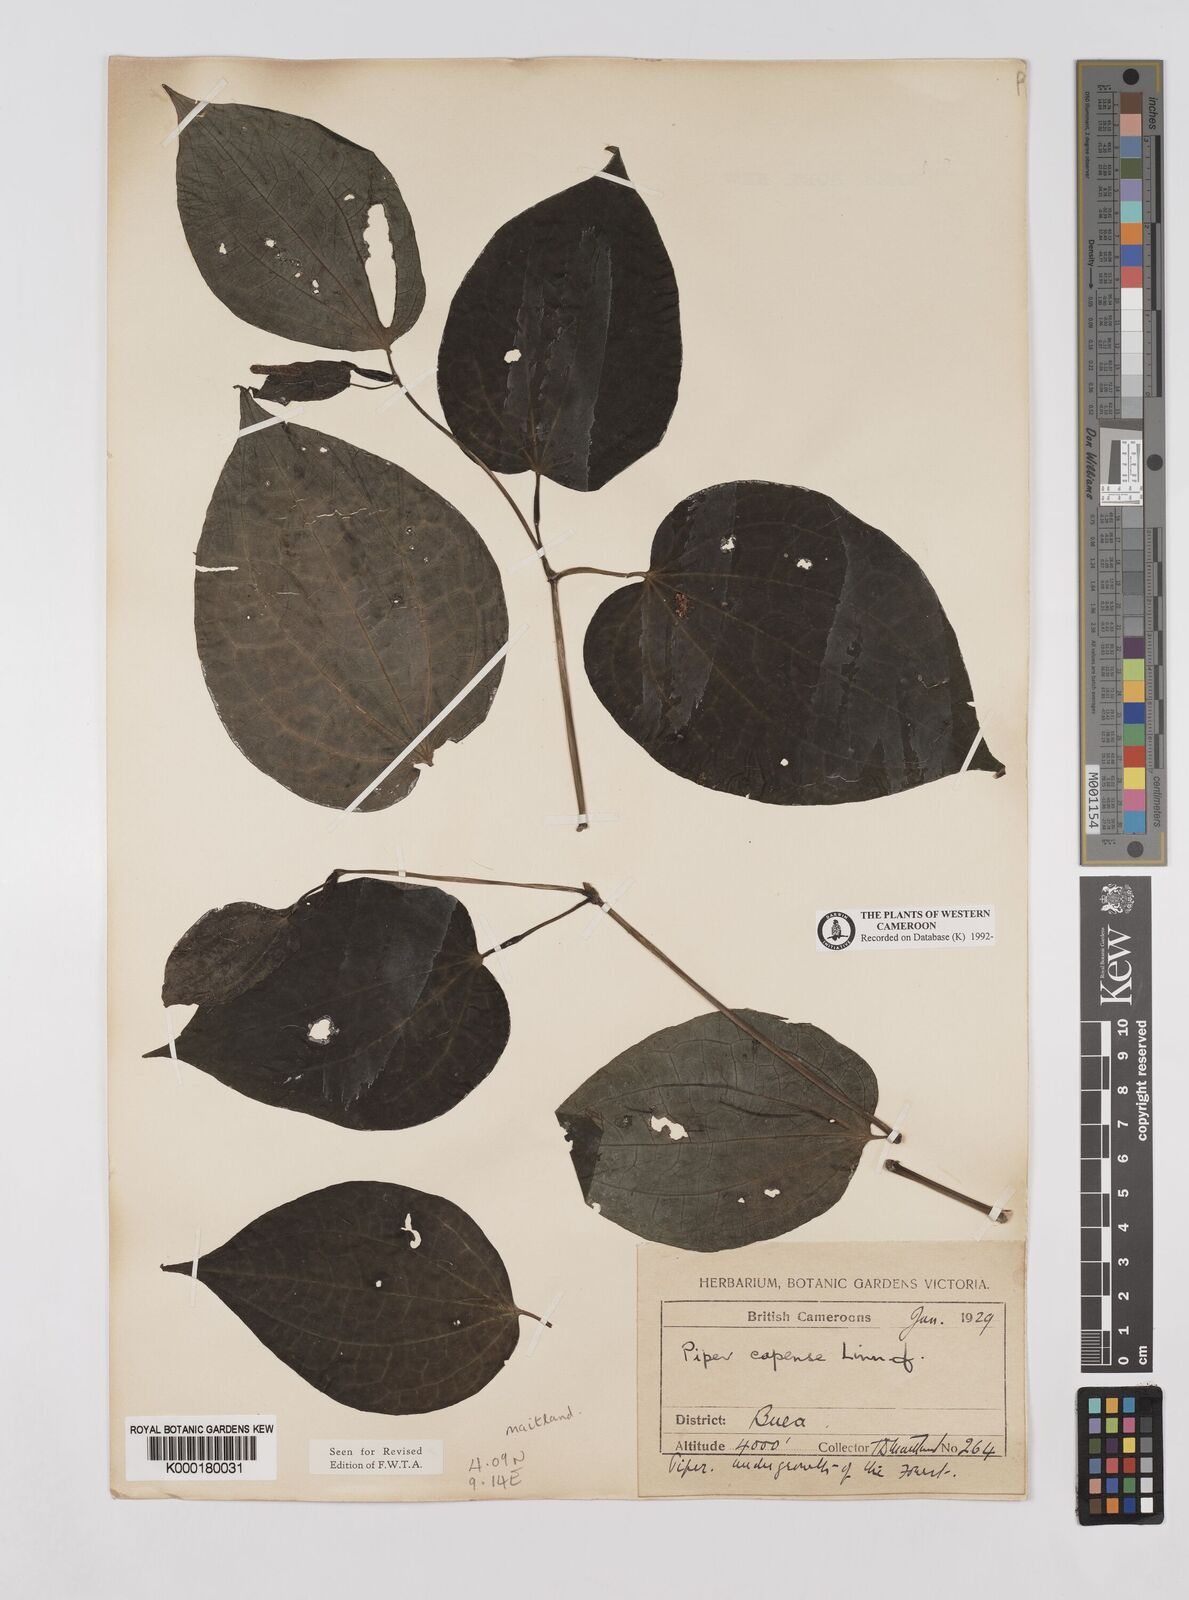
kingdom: Plantae
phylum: Tracheophyta
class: Magnoliopsida
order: Piperales
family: Piperaceae
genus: Piper
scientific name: Piper capense
